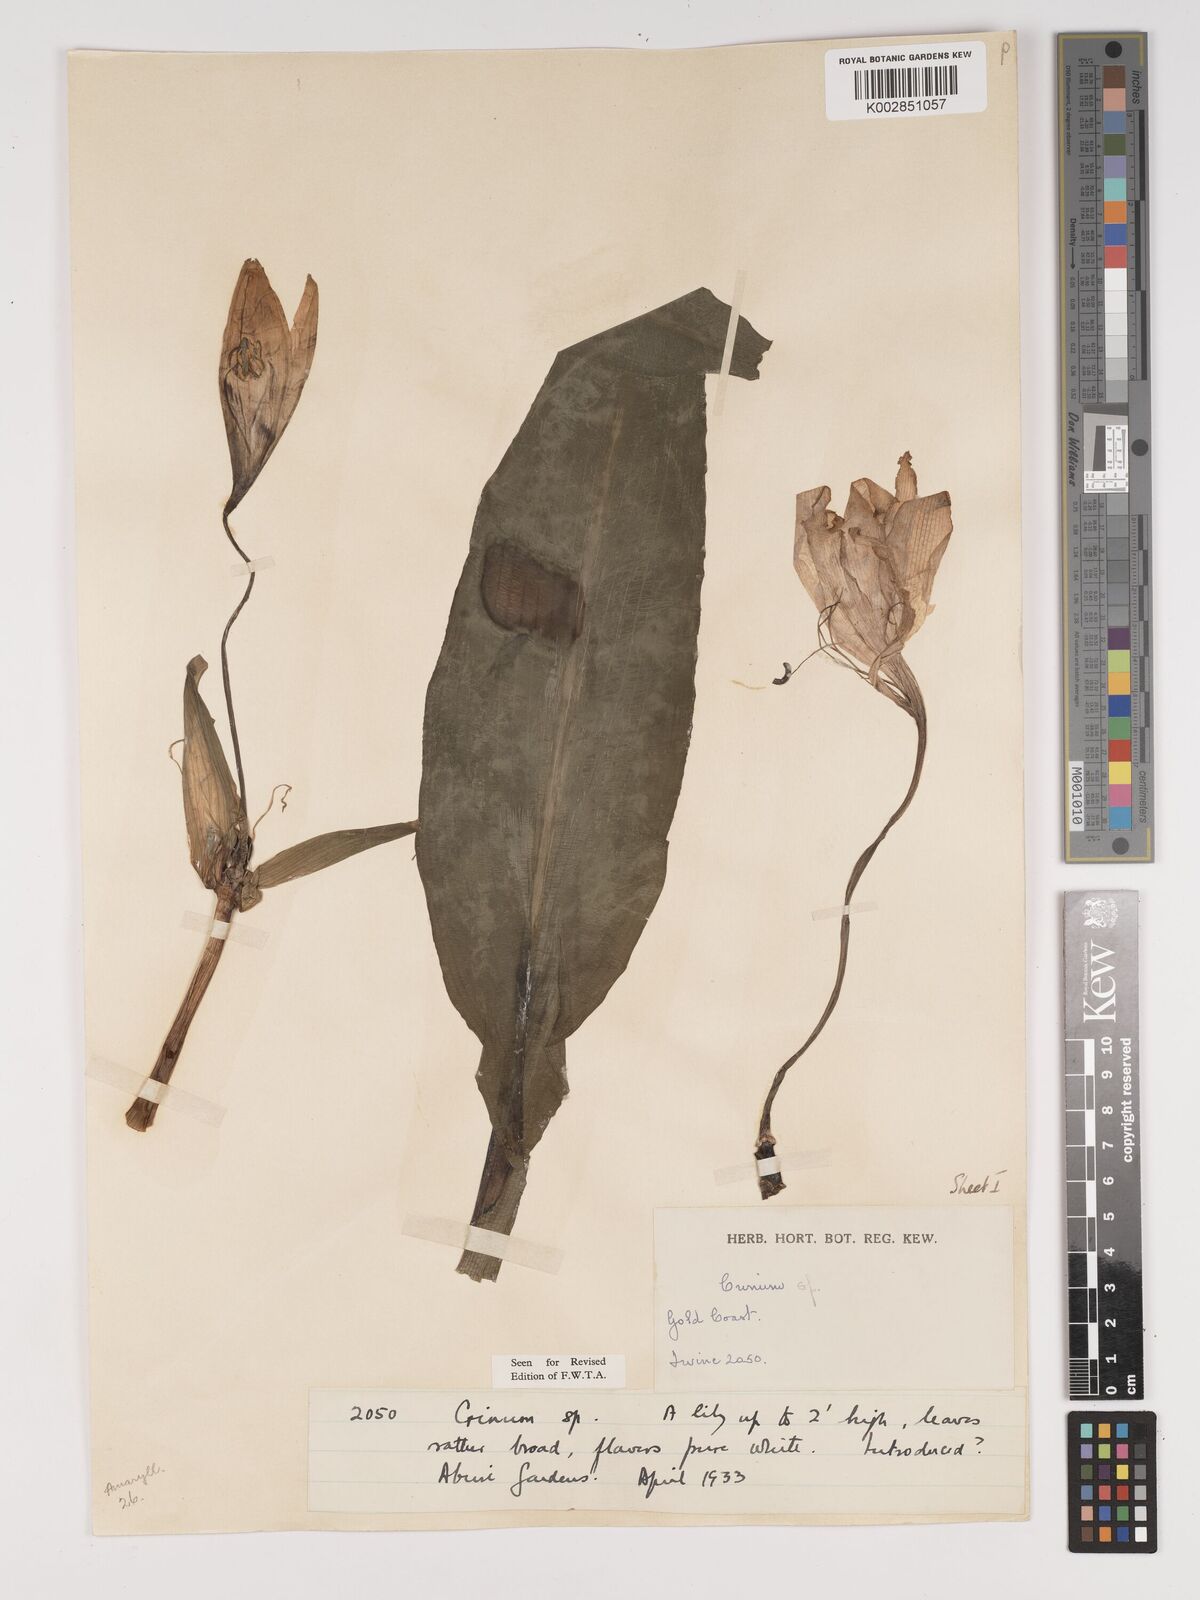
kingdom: Plantae
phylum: Tracheophyta
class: Liliopsida
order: Asparagales
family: Amaryllidaceae
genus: Crinum
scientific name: Crinum jagus
